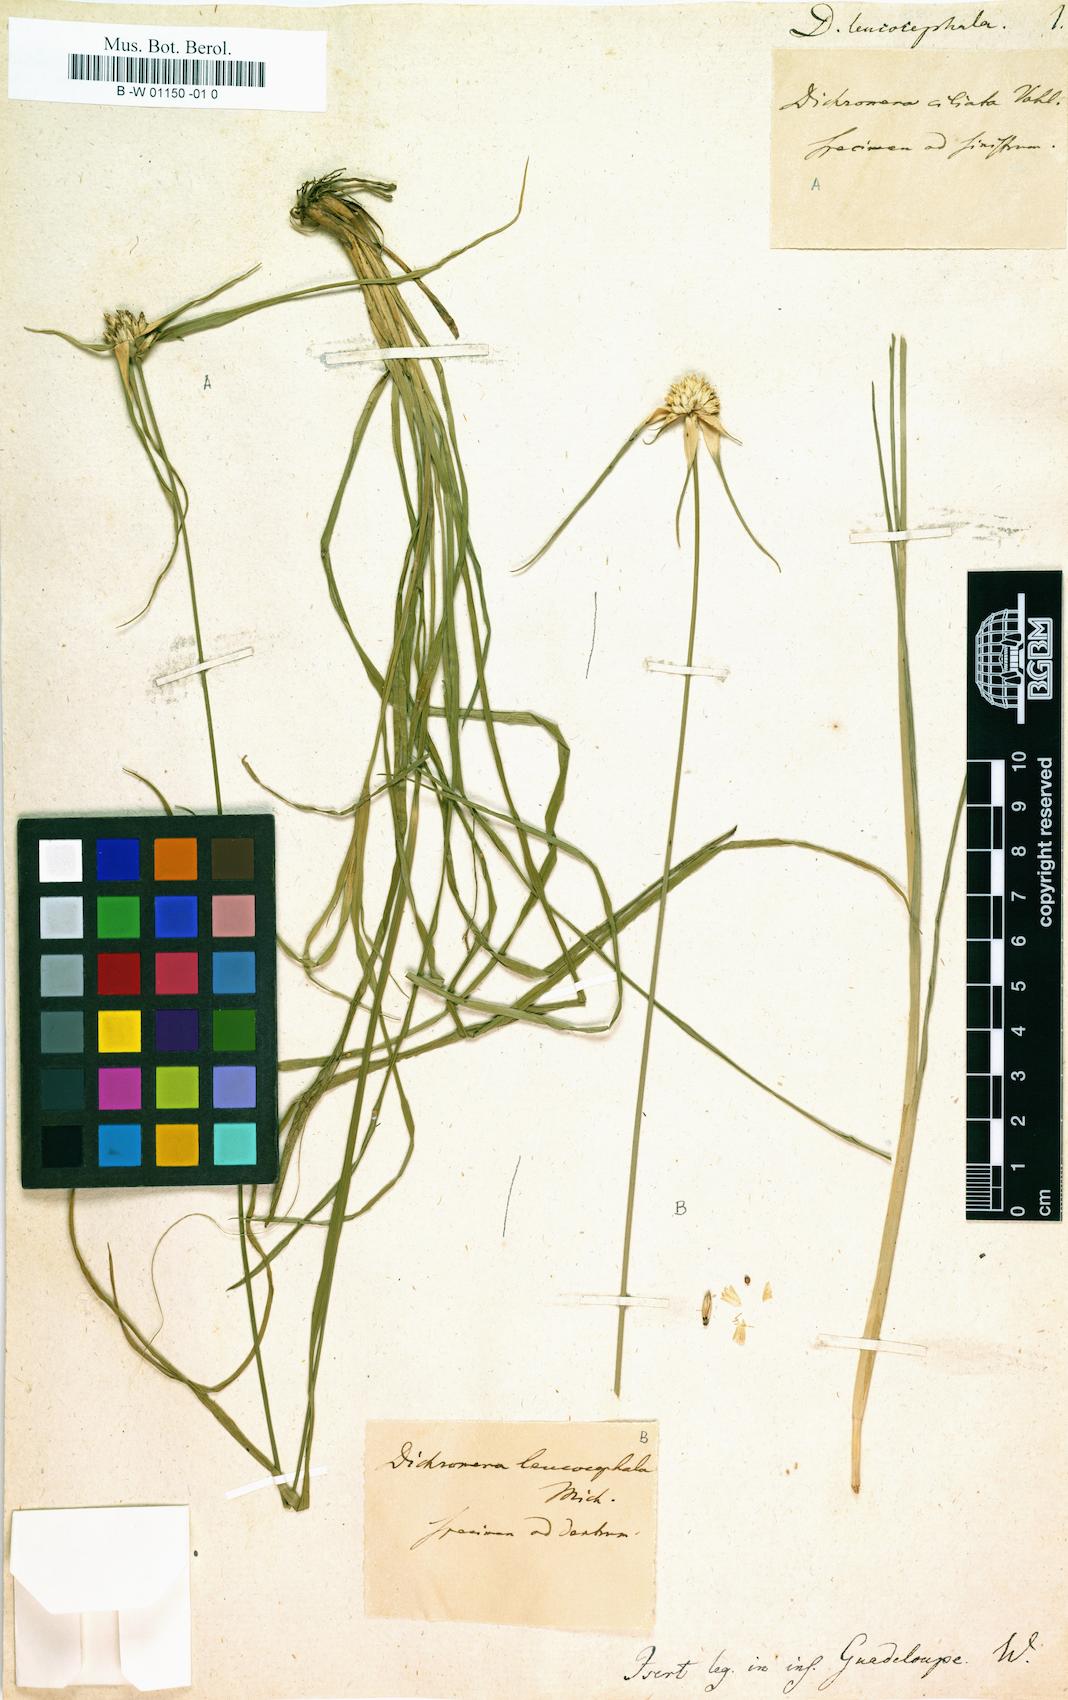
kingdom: Plantae
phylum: Tracheophyta
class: Liliopsida
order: Poales
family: Cyperaceae
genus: Rhynchospora
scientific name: Rhynchospora colorata
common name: Star sedge
